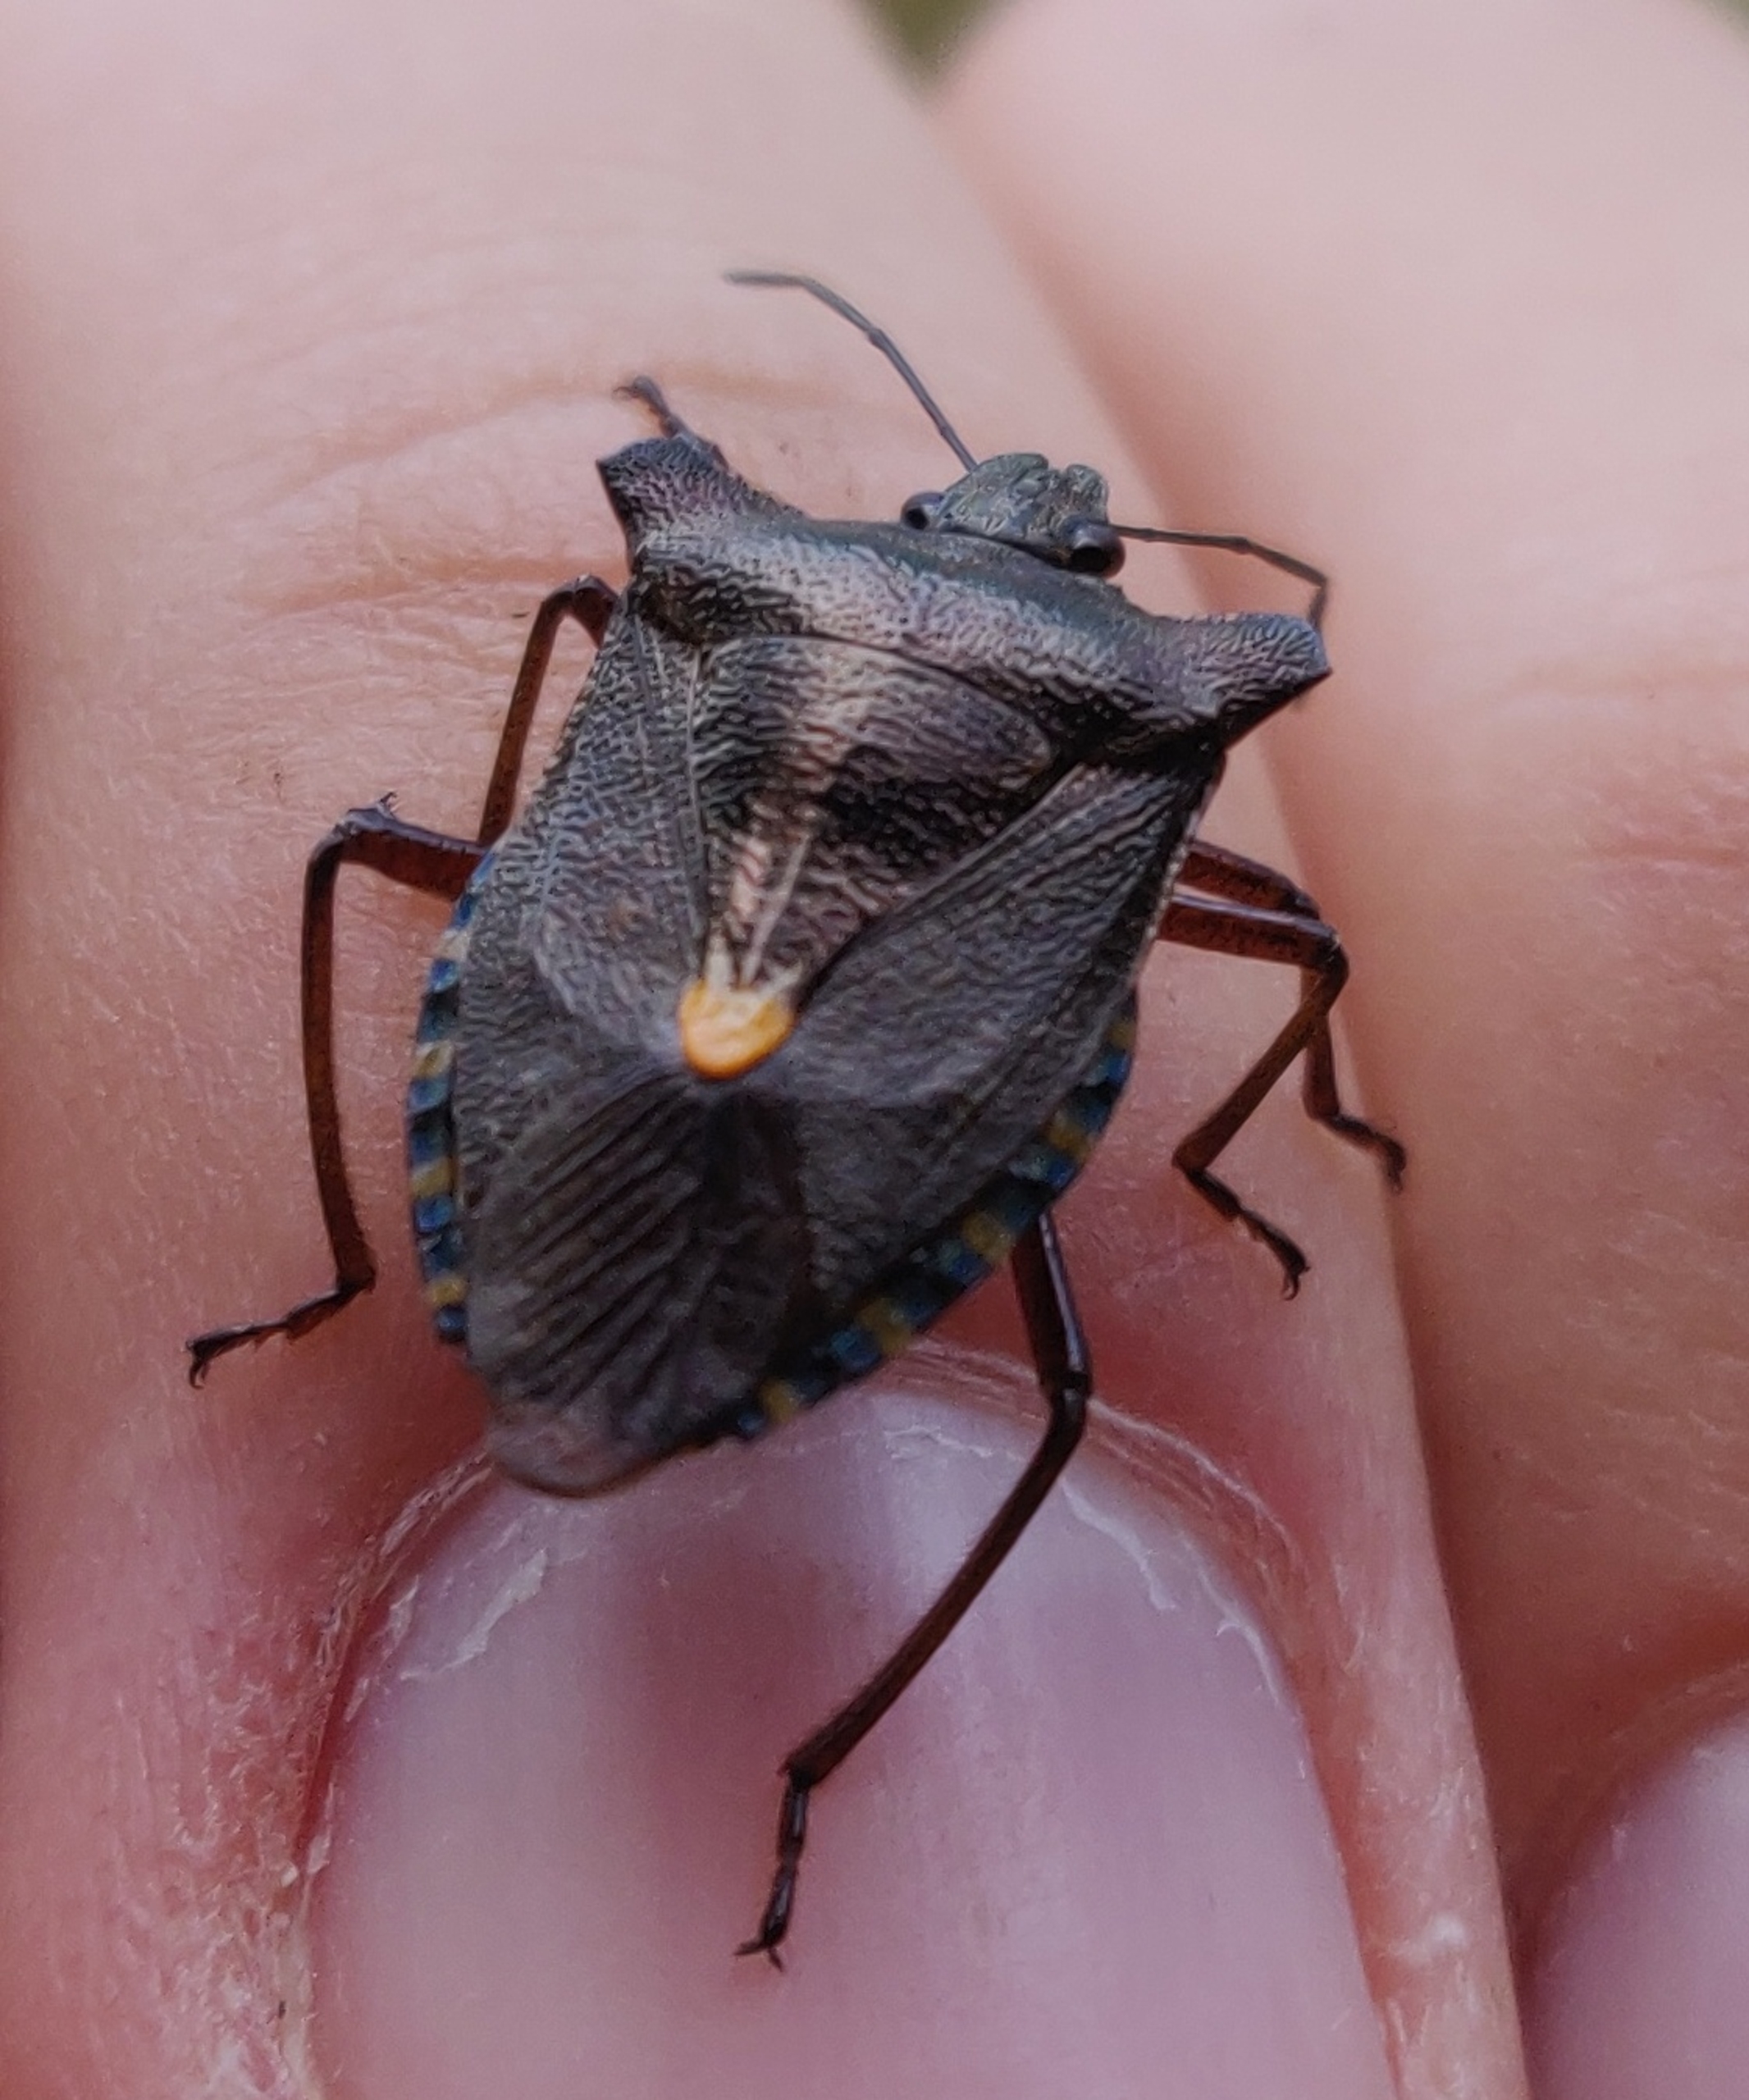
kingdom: Animalia
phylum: Arthropoda
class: Insecta
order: Hemiptera
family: Pentatomidae
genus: Pentatoma
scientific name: Pentatoma rufipes
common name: Rødbenet bredtæge
